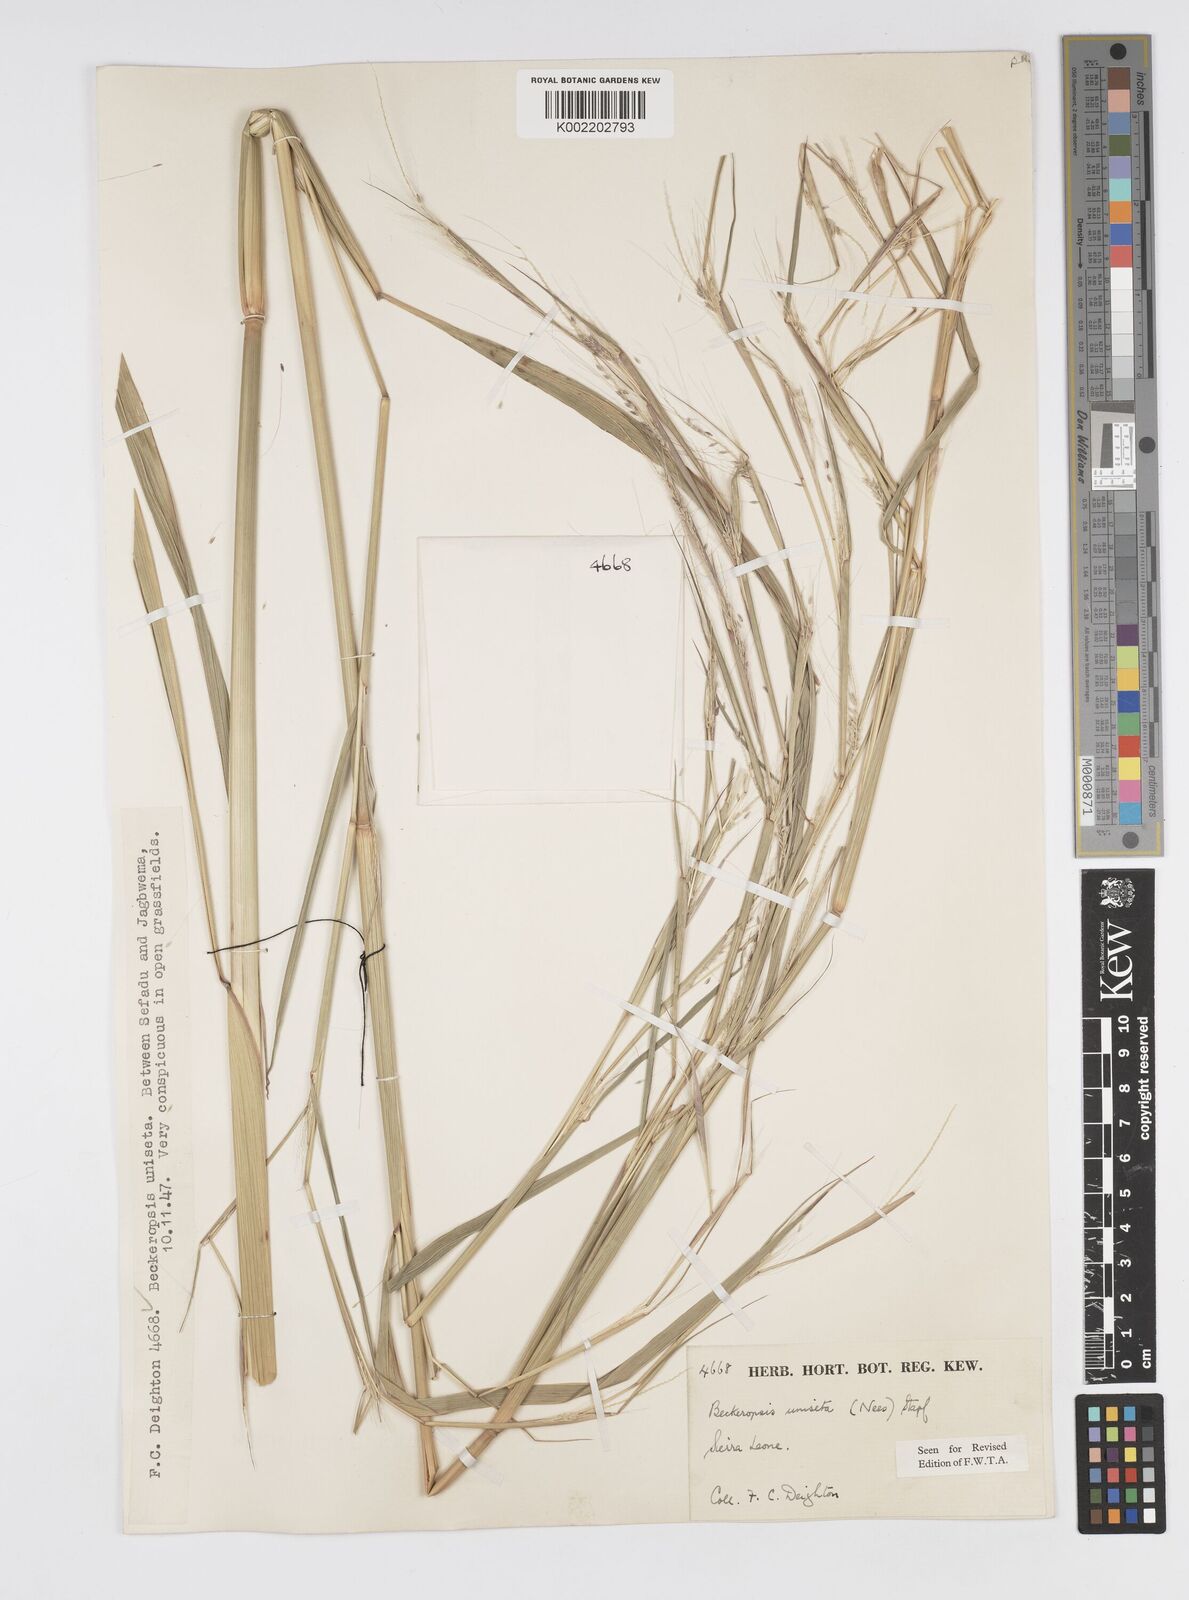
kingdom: Plantae
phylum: Tracheophyta
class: Liliopsida
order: Poales
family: Poaceae
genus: Cenchrus
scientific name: Cenchrus unisetus
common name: Natal grass
